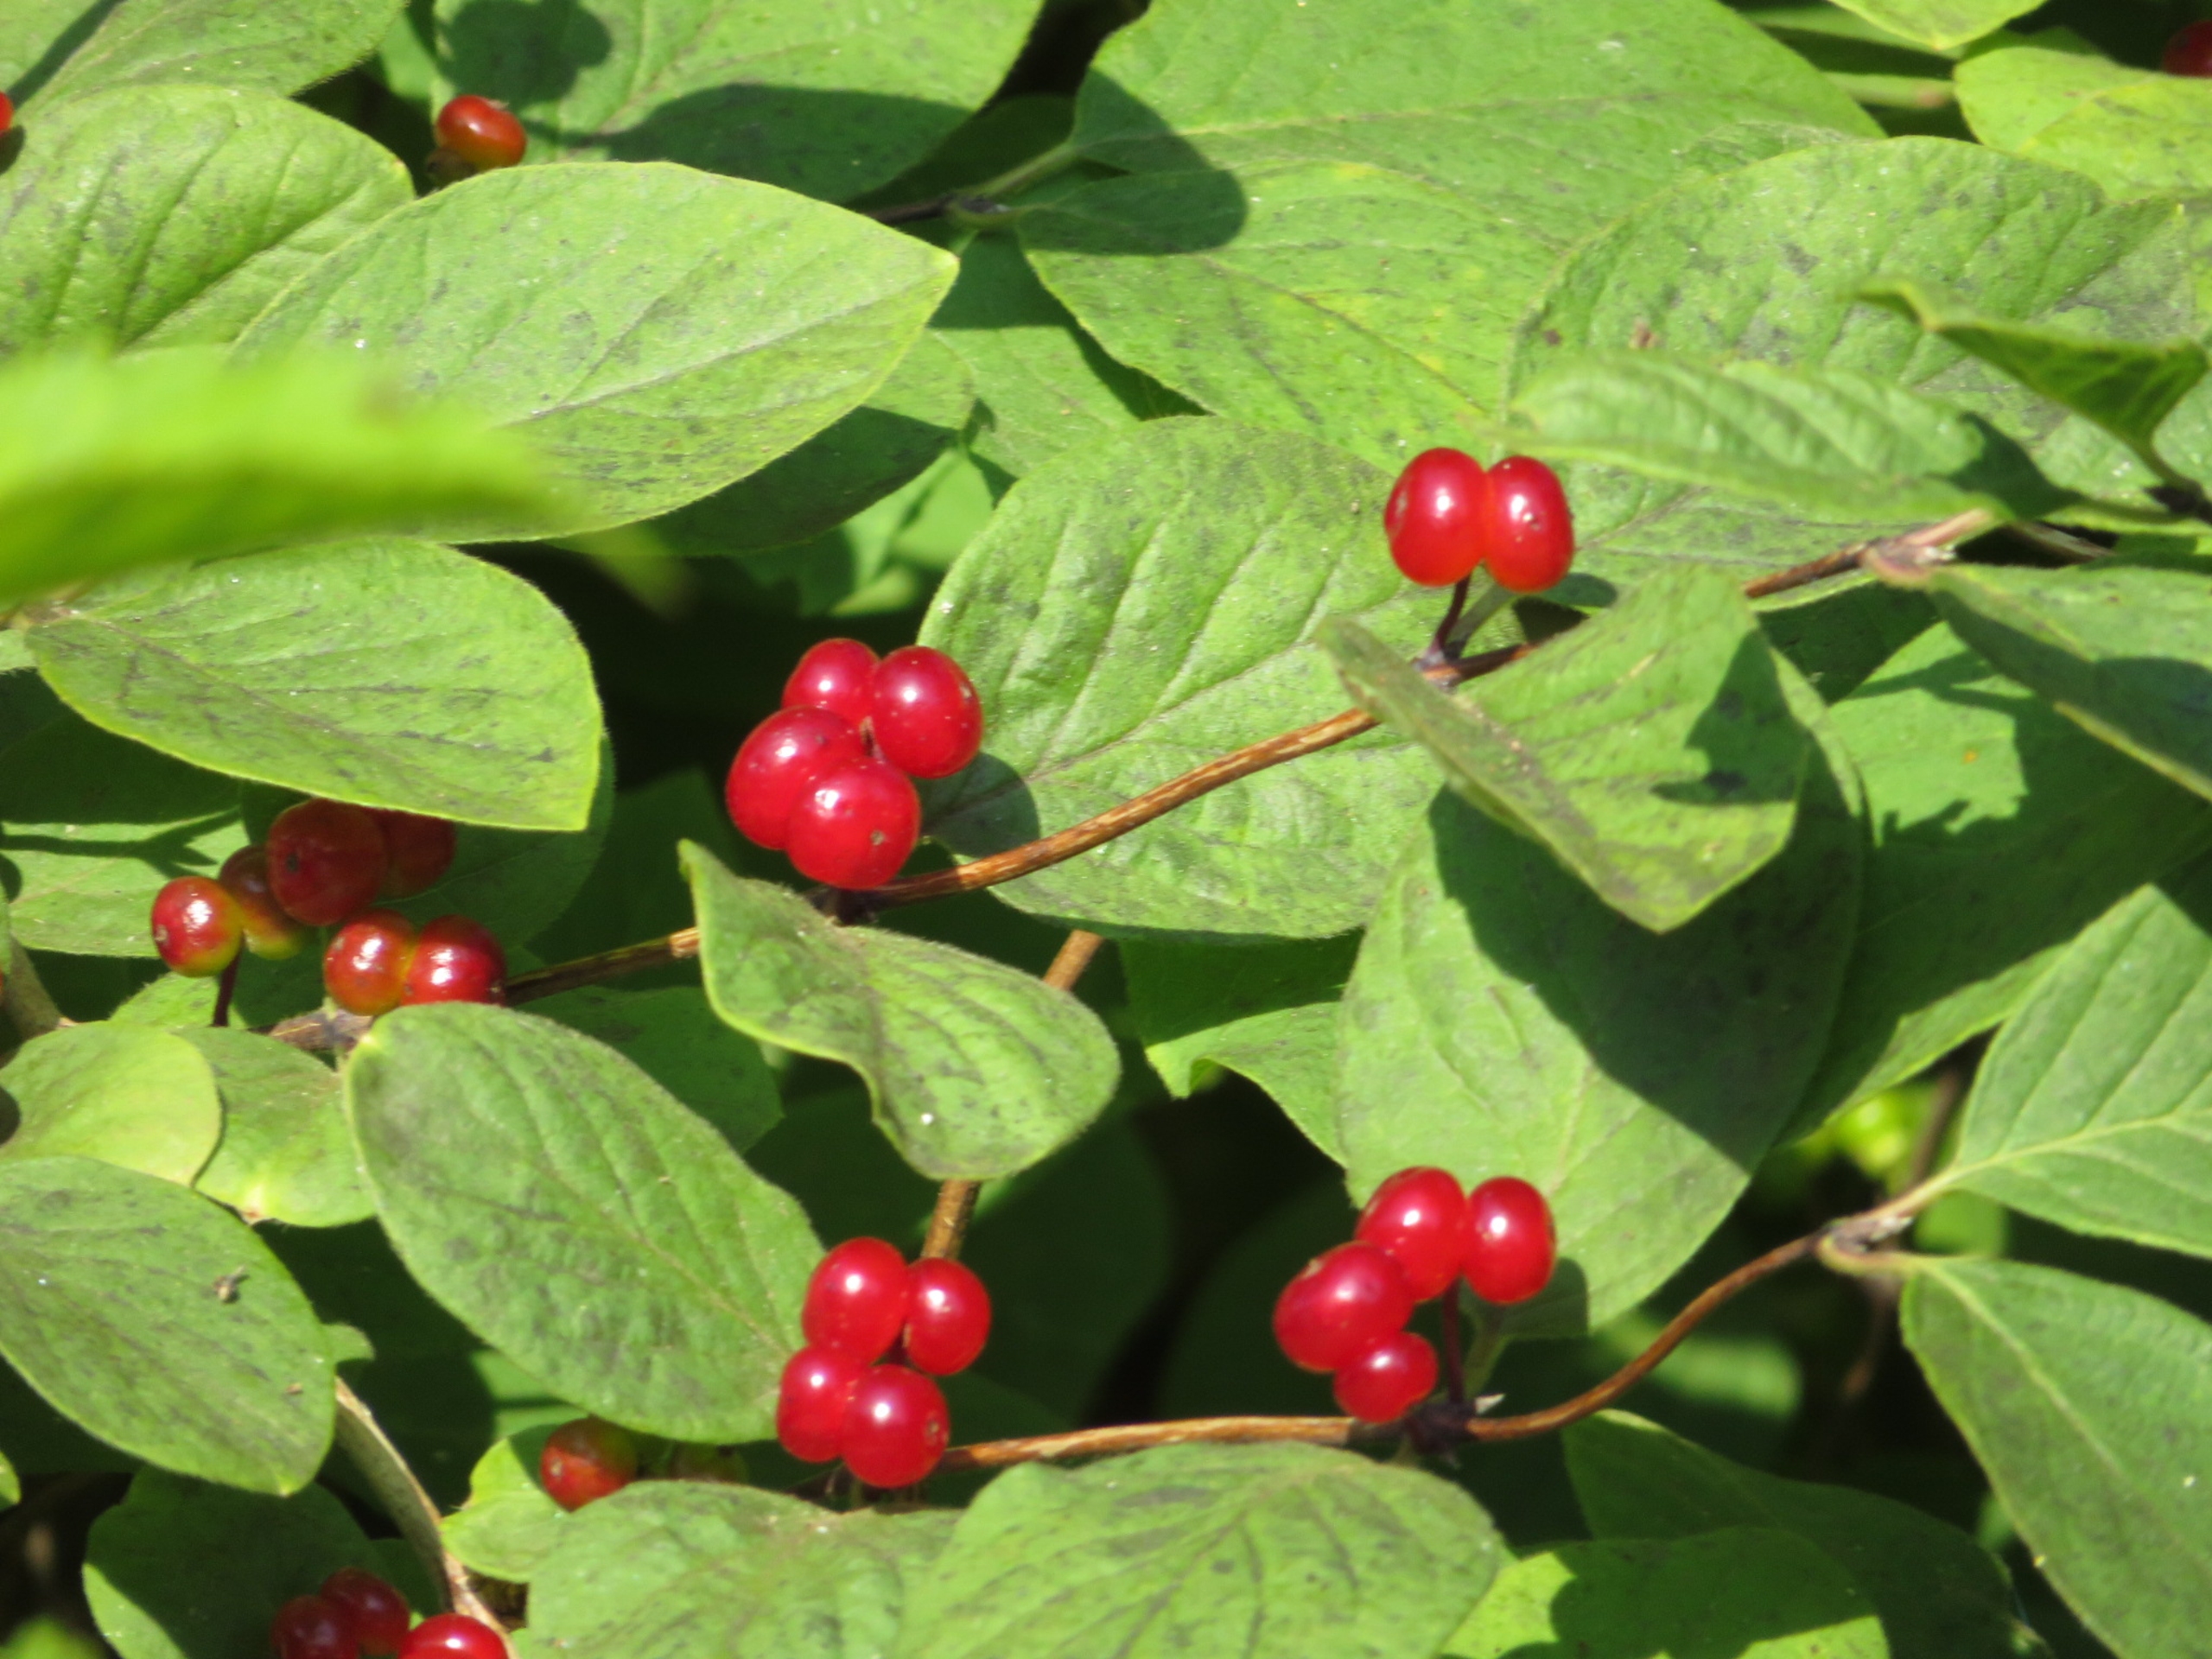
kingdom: Plantae
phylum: Tracheophyta
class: Magnoliopsida
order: Dipsacales
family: Caprifoliaceae
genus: Lonicera
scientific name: Lonicera xylosteum
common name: Dunet gedeblad
